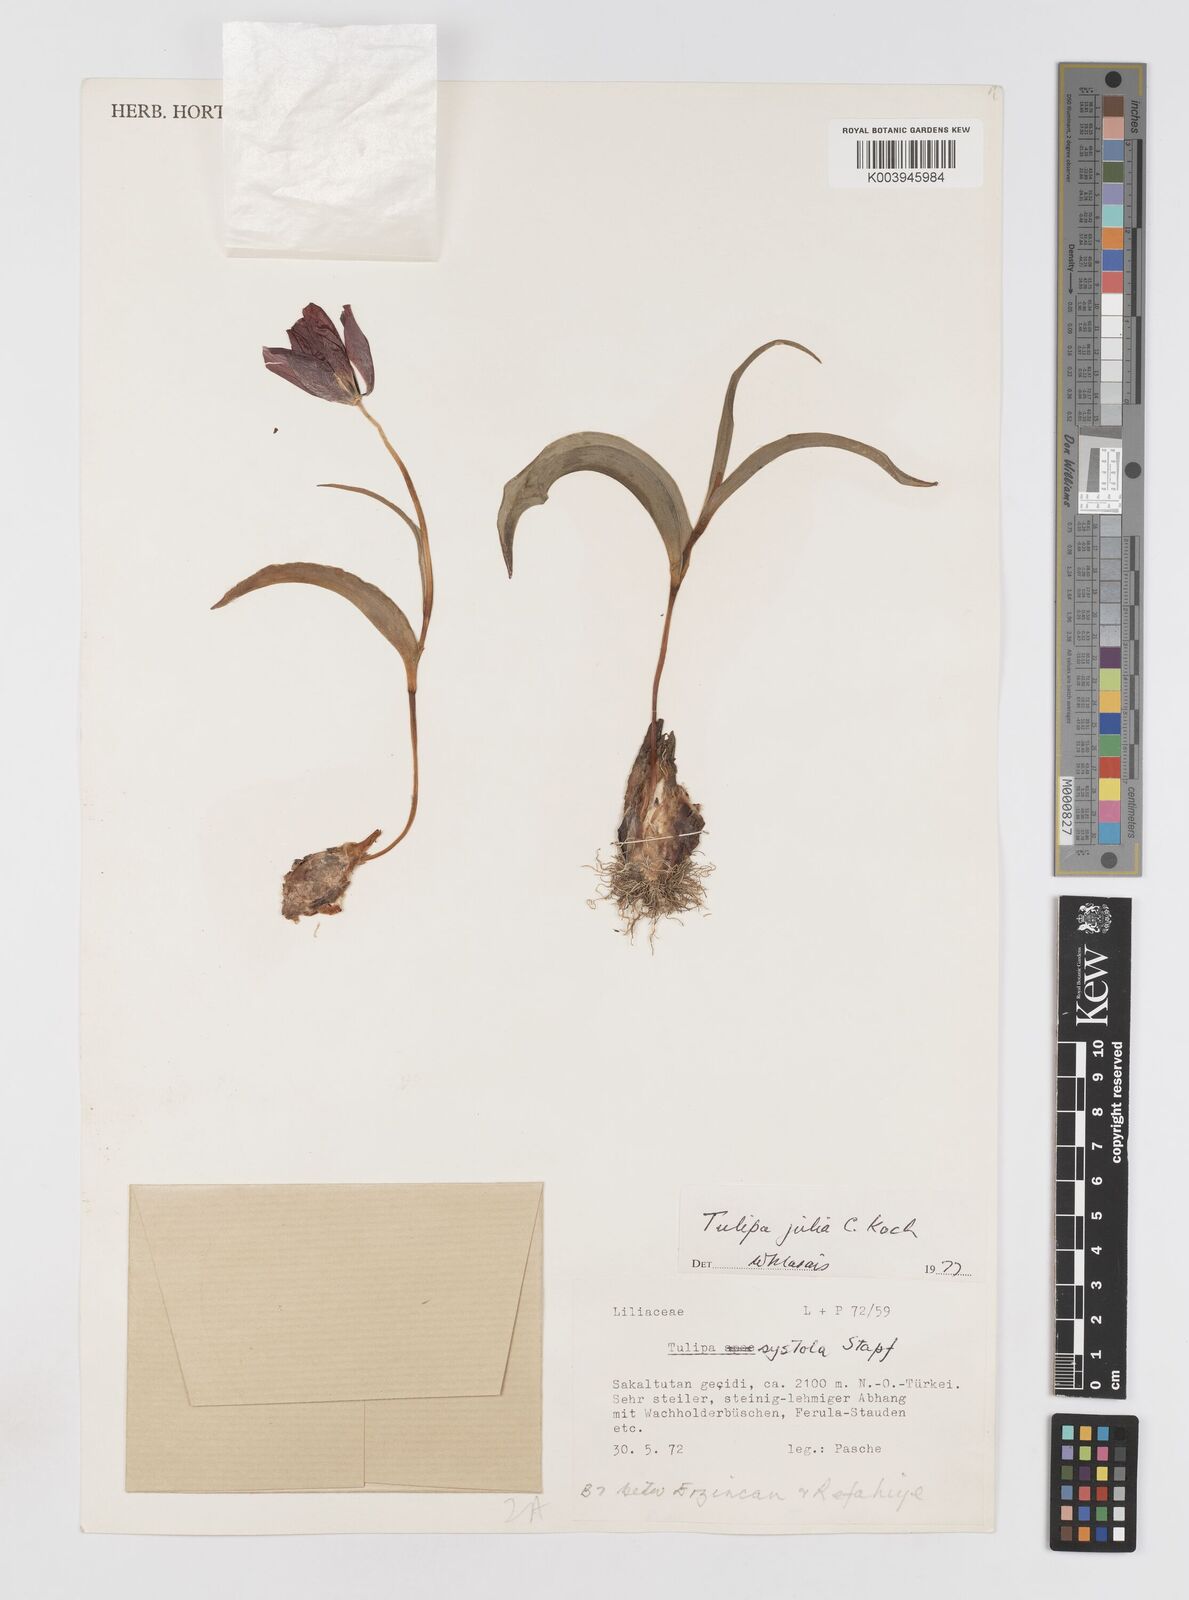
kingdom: Plantae
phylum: Tracheophyta
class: Liliopsida
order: Liliales
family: Liliaceae
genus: Tulipa
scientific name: Tulipa julia
